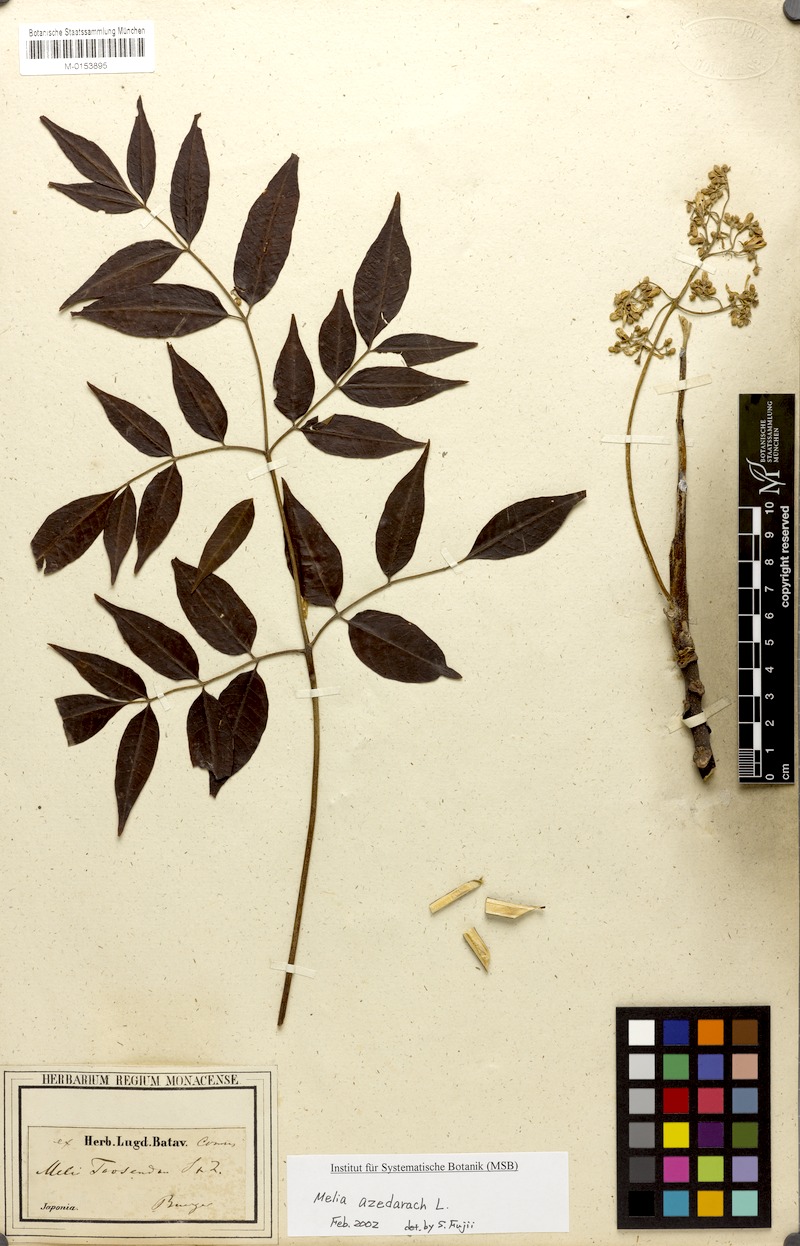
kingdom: Plantae
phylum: Tracheophyta
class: Magnoliopsida
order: Sapindales
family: Meliaceae
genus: Melia
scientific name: Melia azedarach
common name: Chinaberrytree
